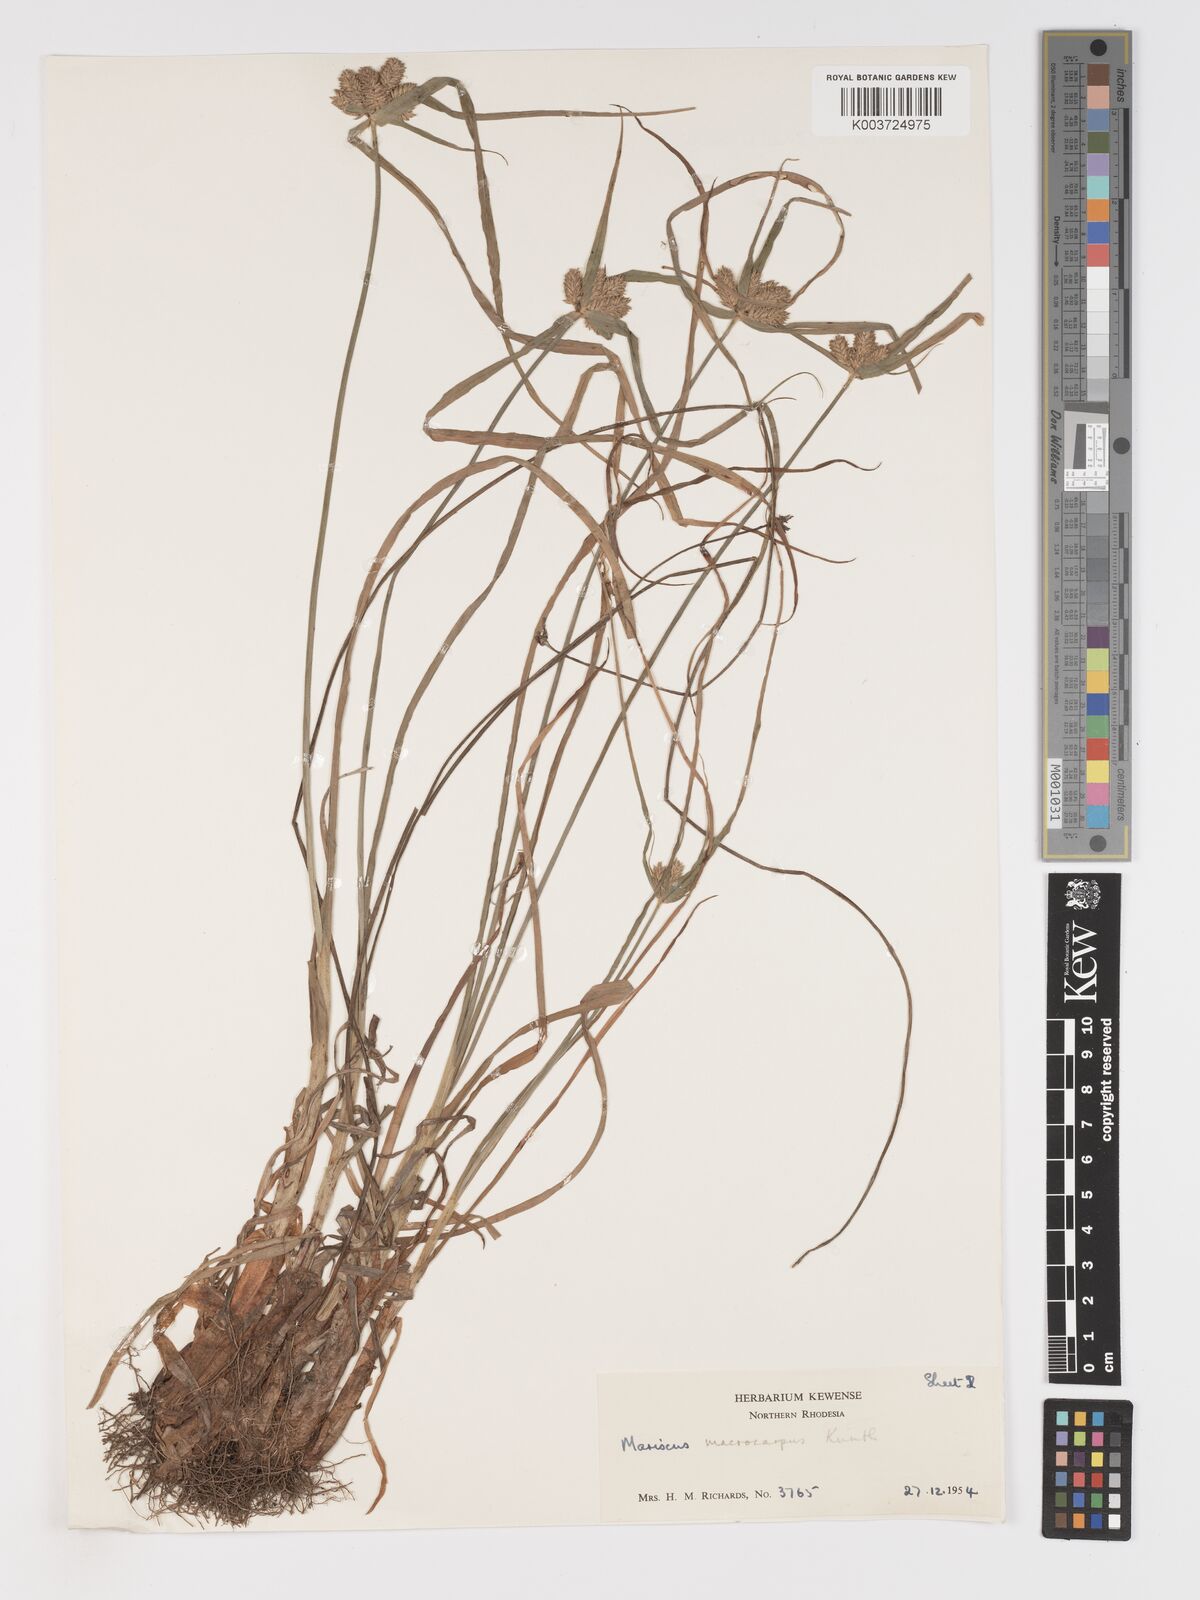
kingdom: Plantae
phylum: Tracheophyta
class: Liliopsida
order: Poales
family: Cyperaceae
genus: Cyperus
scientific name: Cyperus trigonellus
